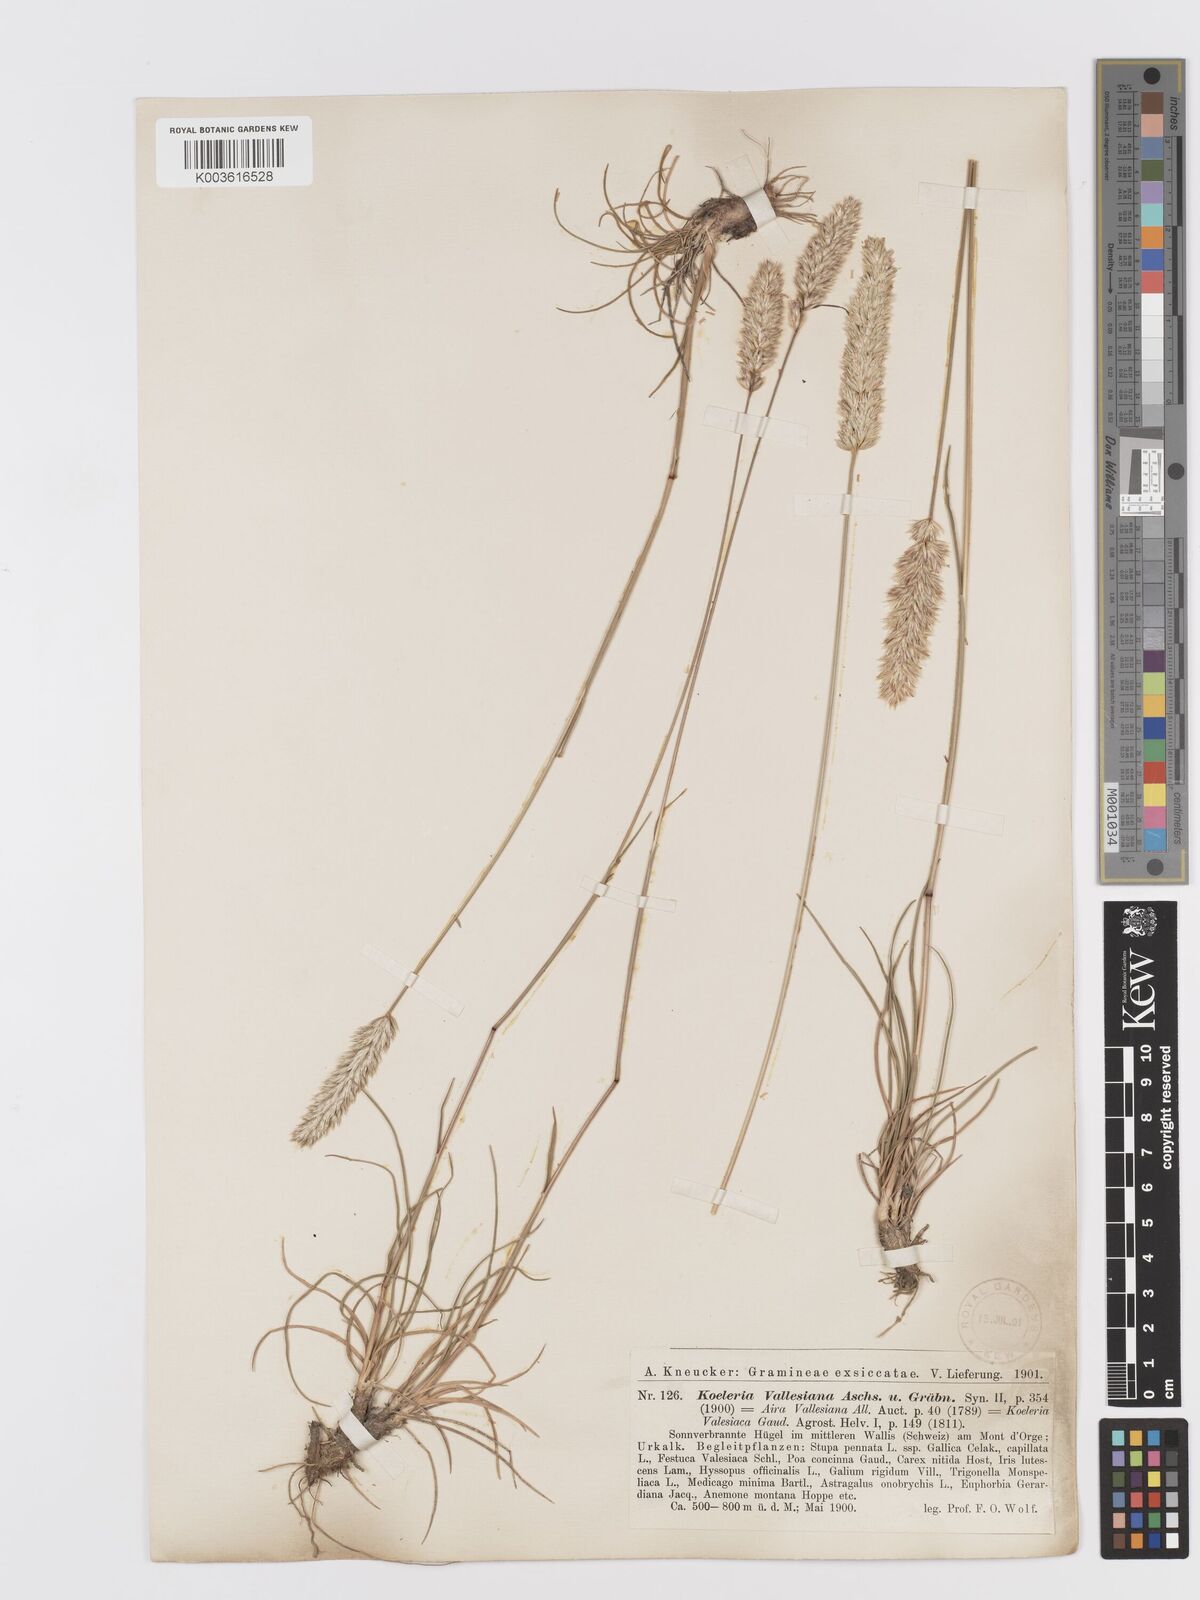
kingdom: Plantae
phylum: Tracheophyta
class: Liliopsida
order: Poales
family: Poaceae
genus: Koeleria
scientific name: Koeleria vallesiana
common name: Somerset hair-grass
